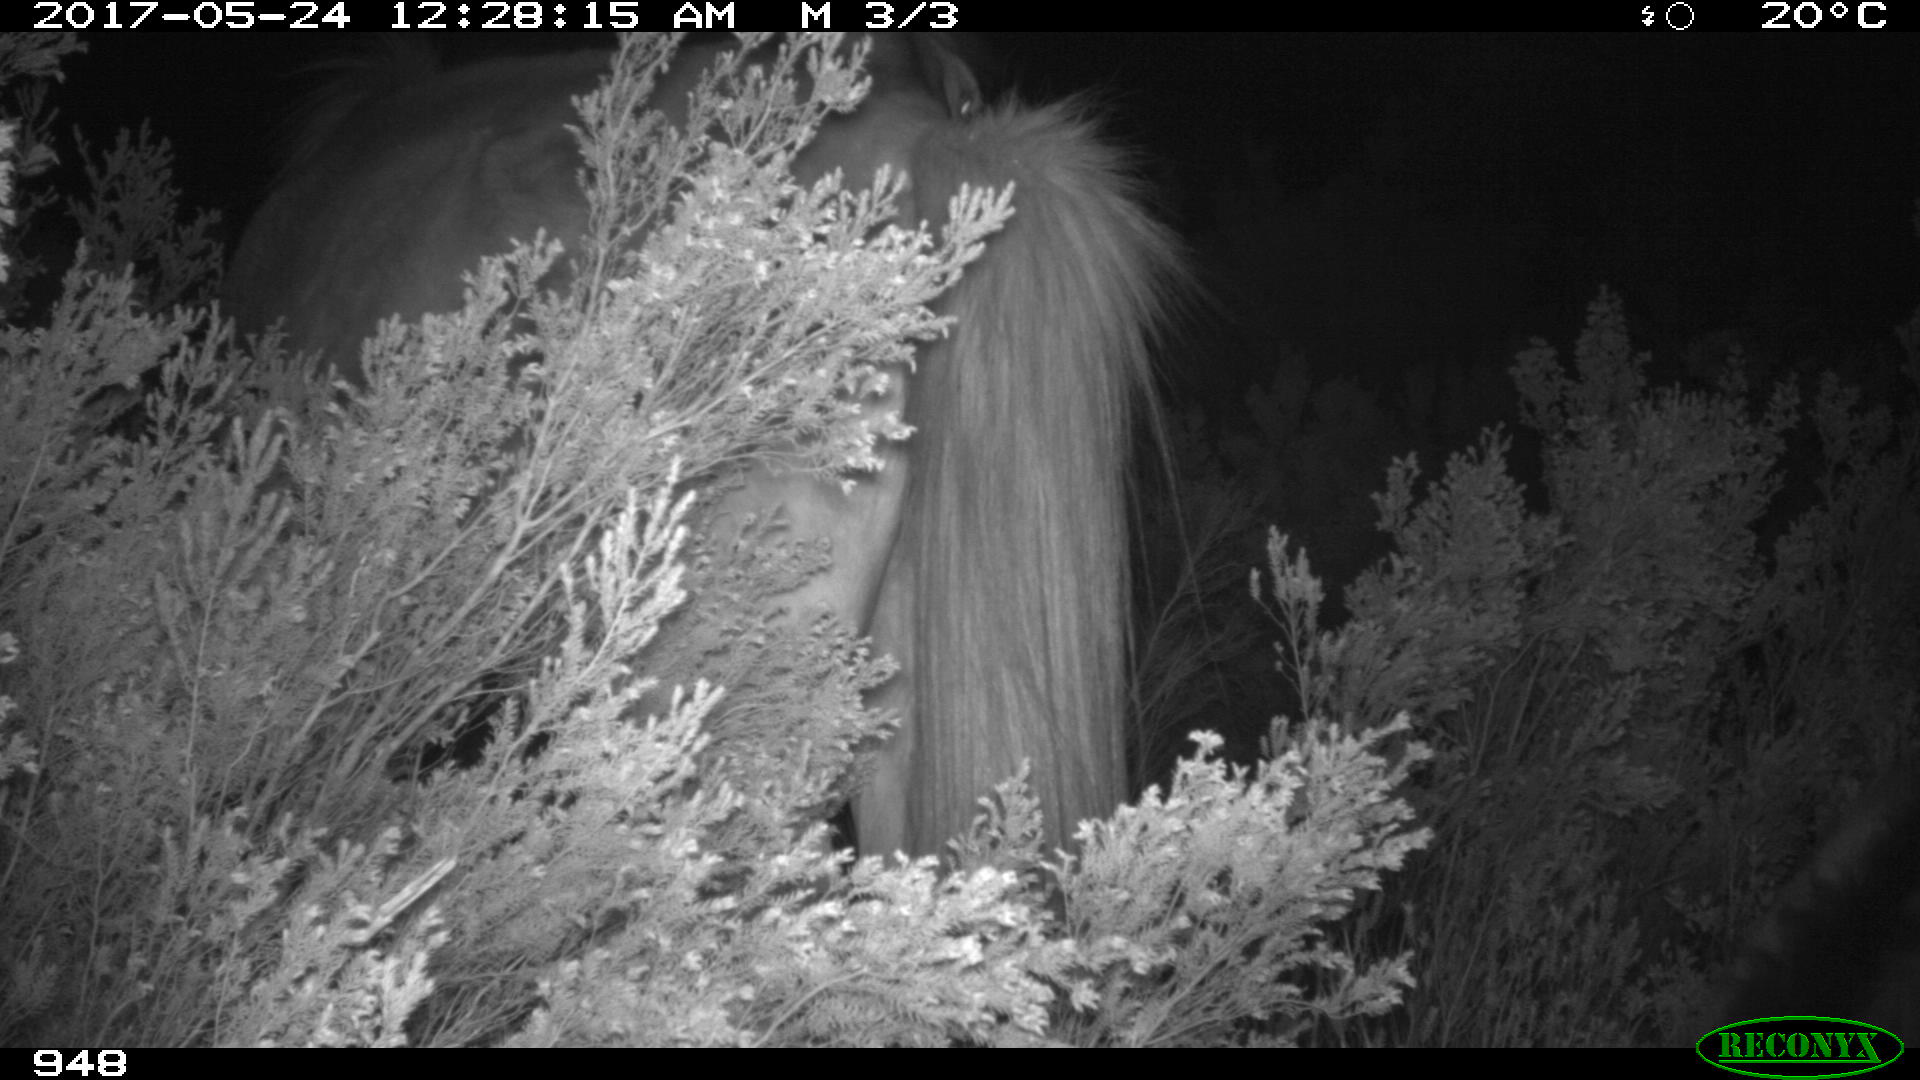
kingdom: Animalia
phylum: Chordata
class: Mammalia
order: Perissodactyla
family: Equidae
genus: Equus
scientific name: Equus caballus
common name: Horse
